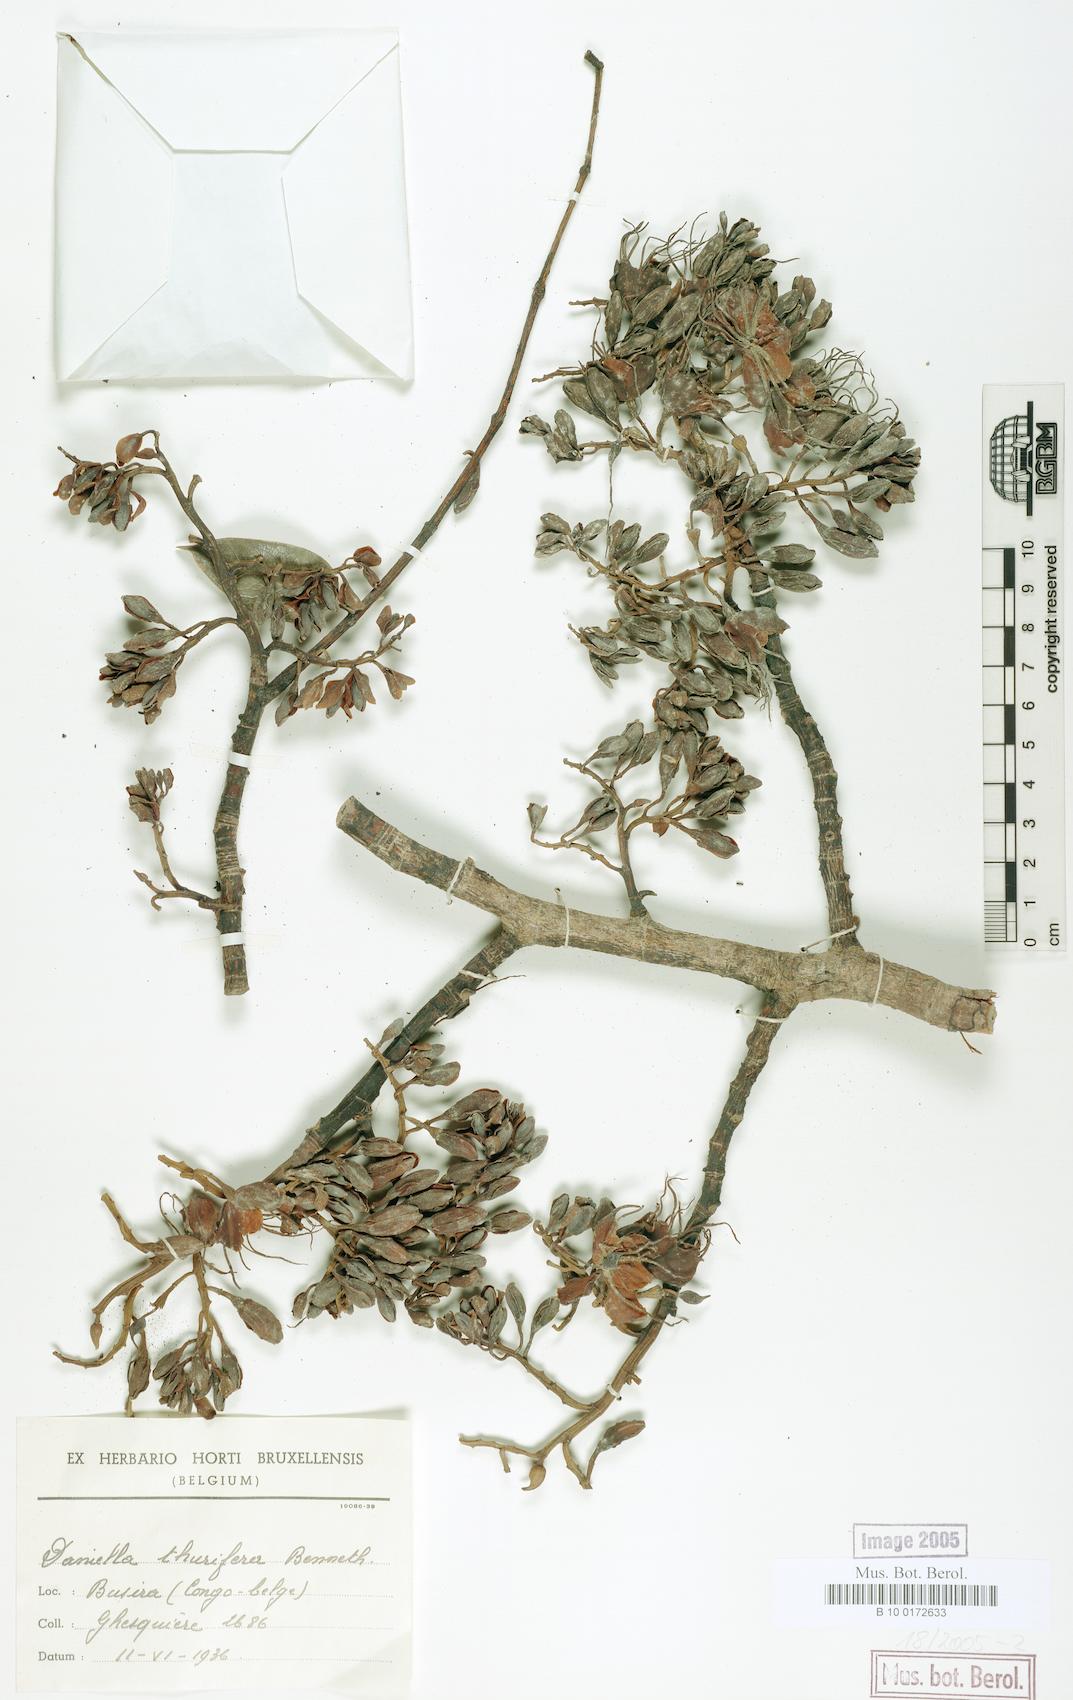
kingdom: Plantae
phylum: Tracheophyta
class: Magnoliopsida
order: Fabales
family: Fabaceae
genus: Daniellia
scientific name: Daniellia pynaertii
